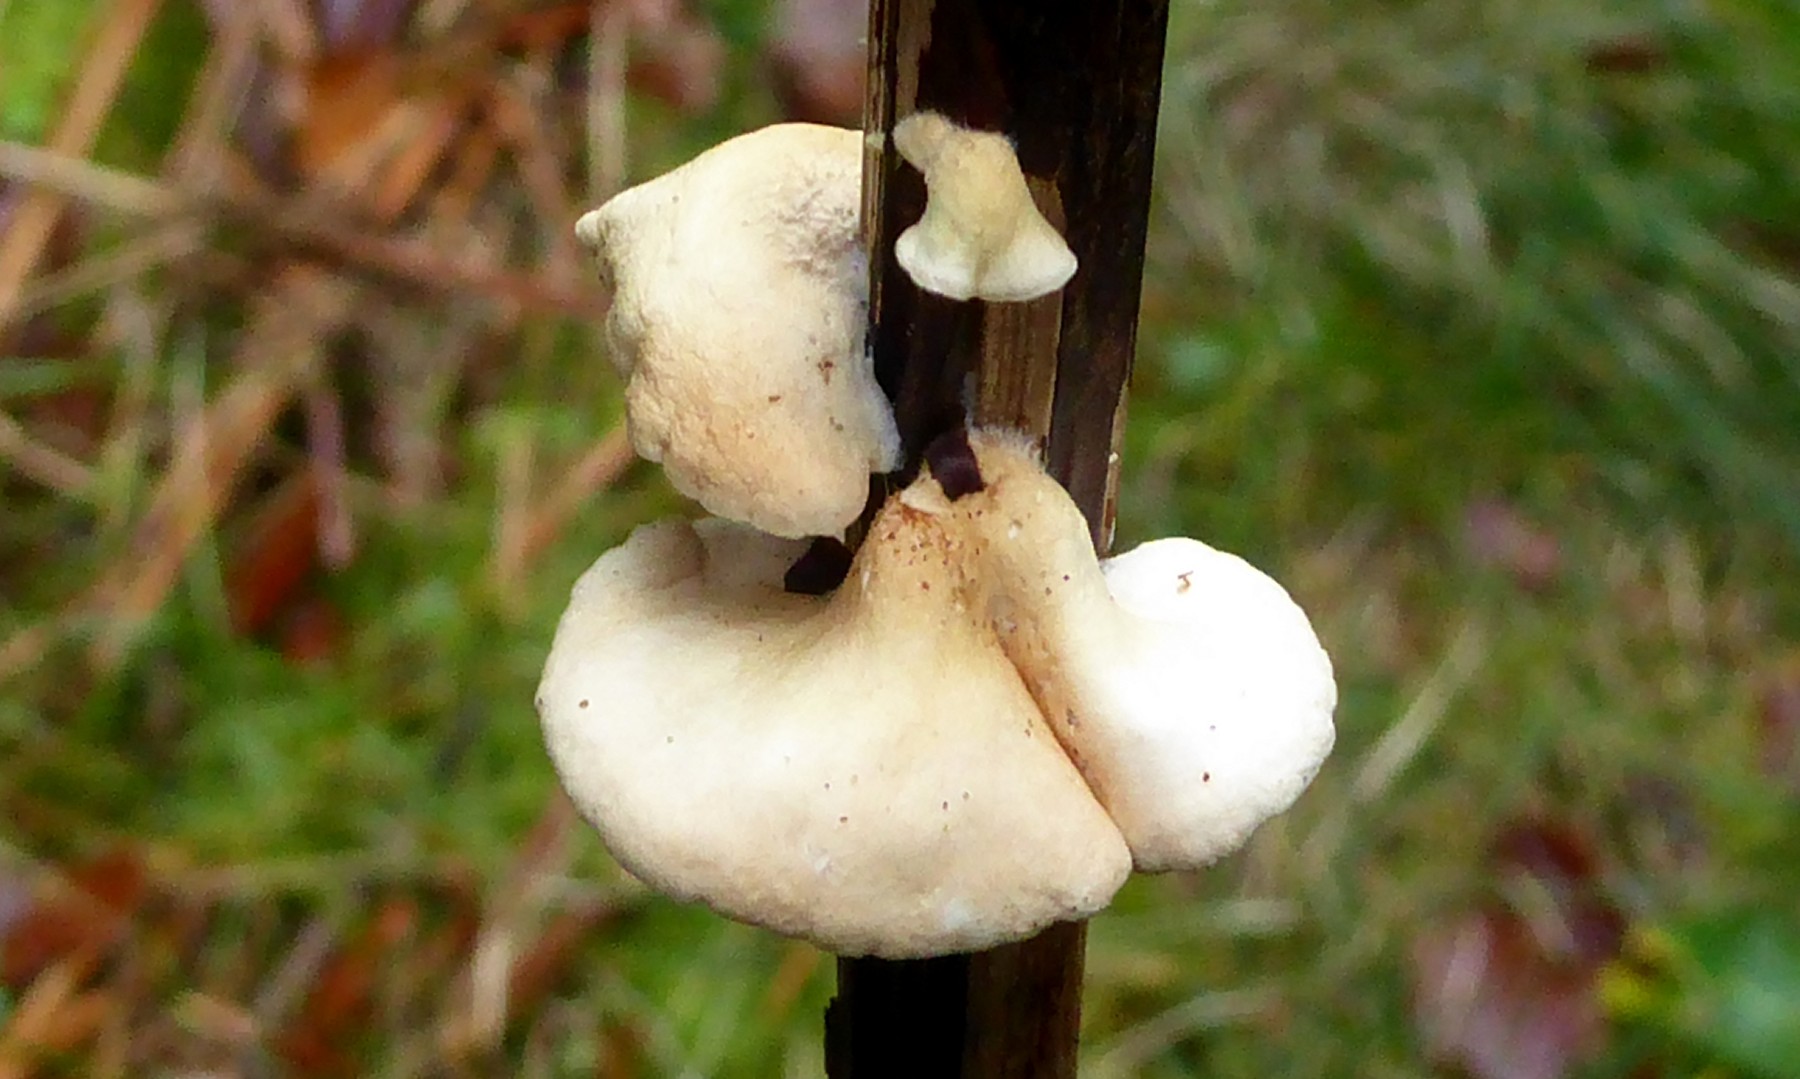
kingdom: Fungi
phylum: Basidiomycota
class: Agaricomycetes
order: Agaricales
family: Crepidotaceae
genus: Crepidotus
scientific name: Crepidotus luteolus
